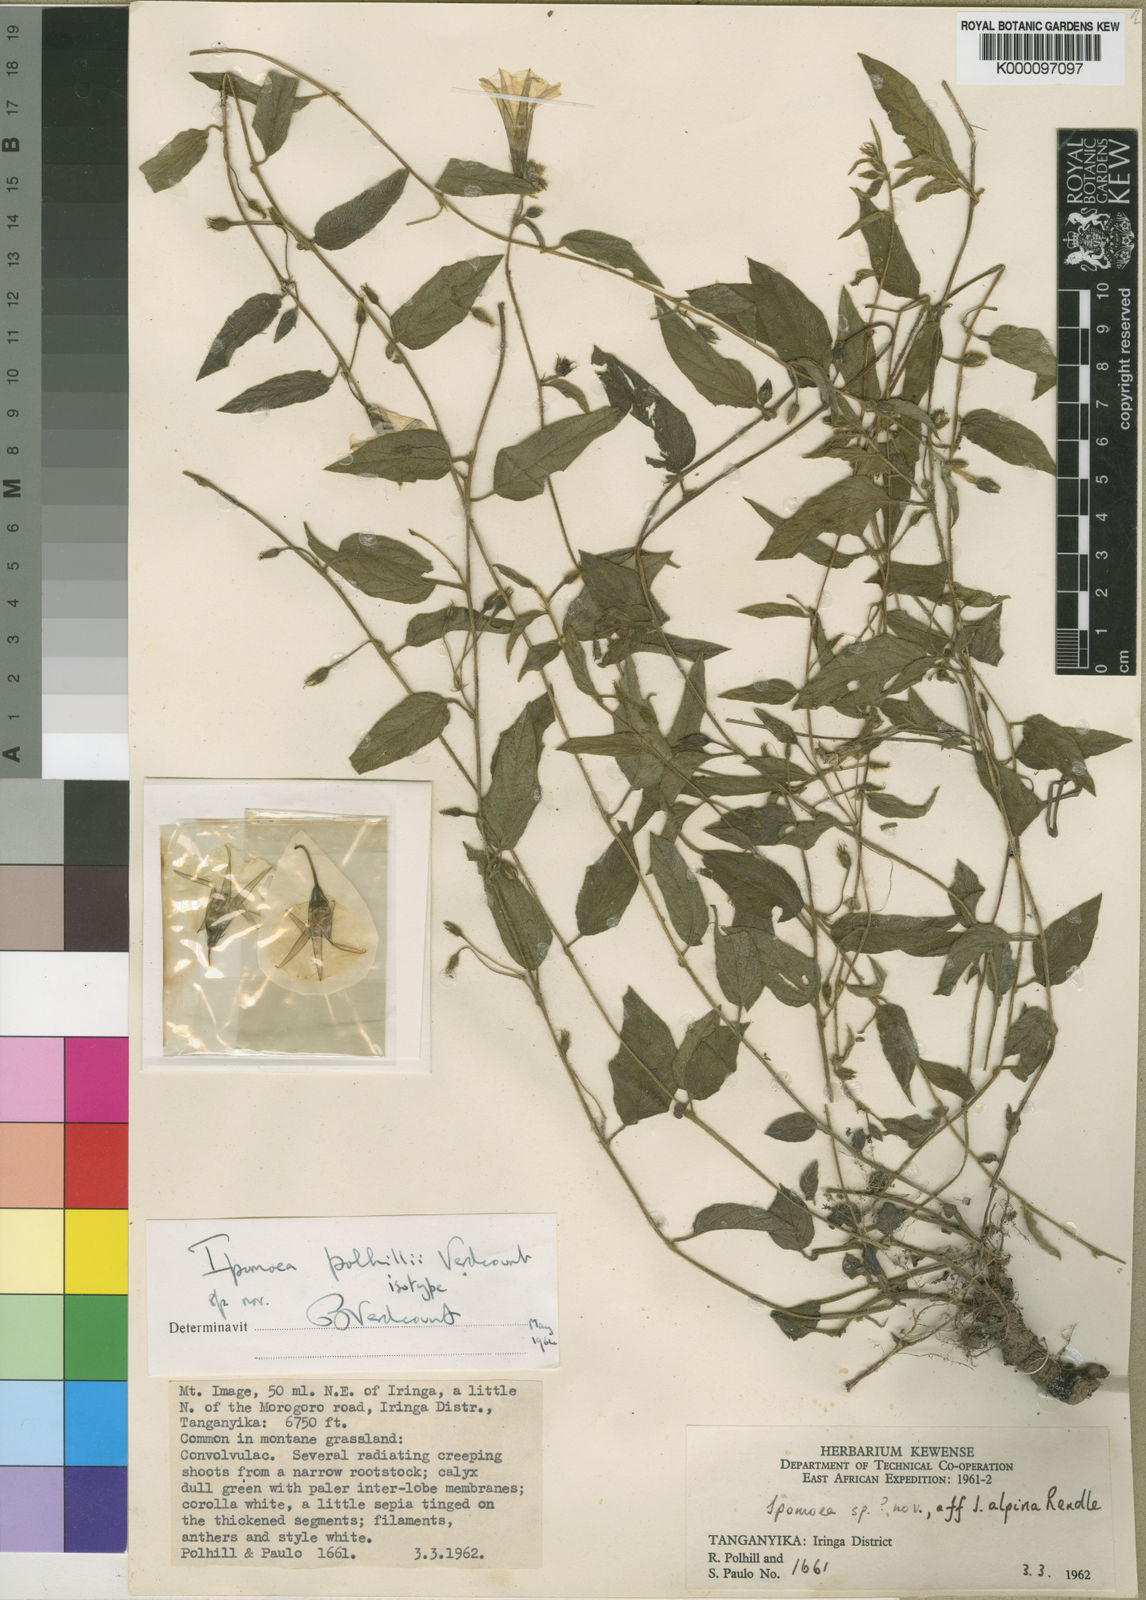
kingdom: Plantae
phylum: Tracheophyta
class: Magnoliopsida
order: Solanales
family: Convolvulaceae
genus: Ipomoea
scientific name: Ipomoea polhillii
